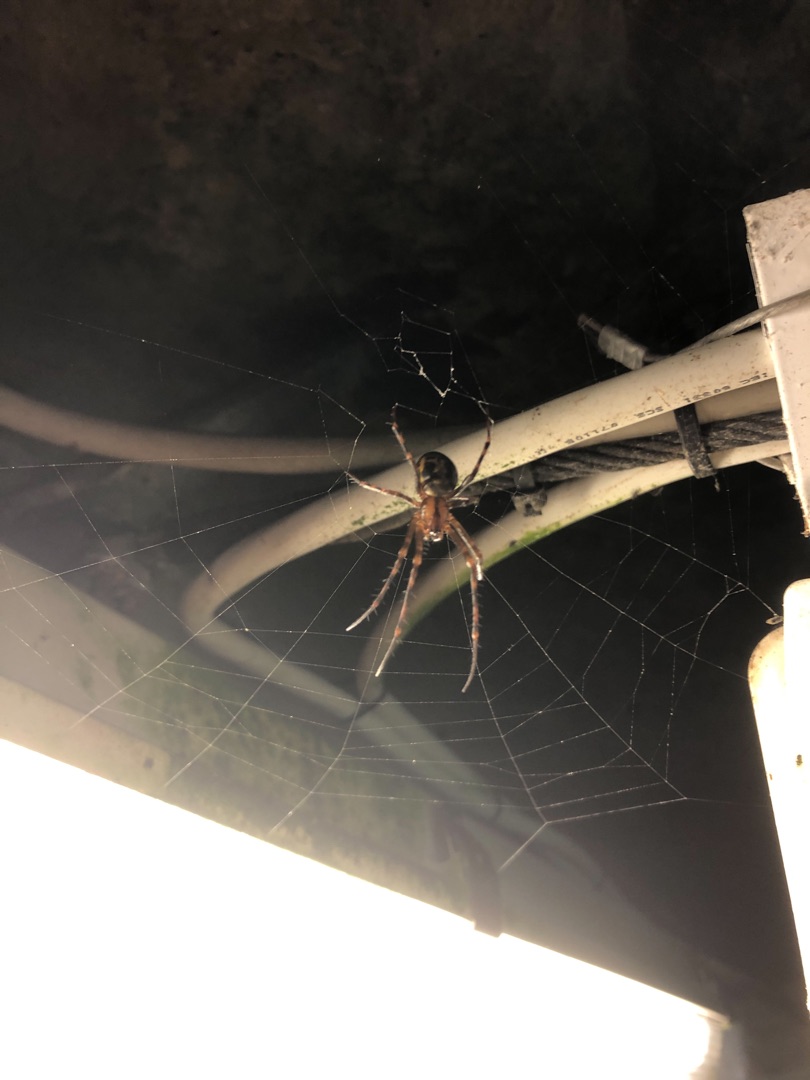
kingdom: Animalia
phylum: Arthropoda
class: Arachnida
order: Araneae
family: Tetragnathidae
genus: Meta
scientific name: Meta menardi
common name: Grotteedderkop
